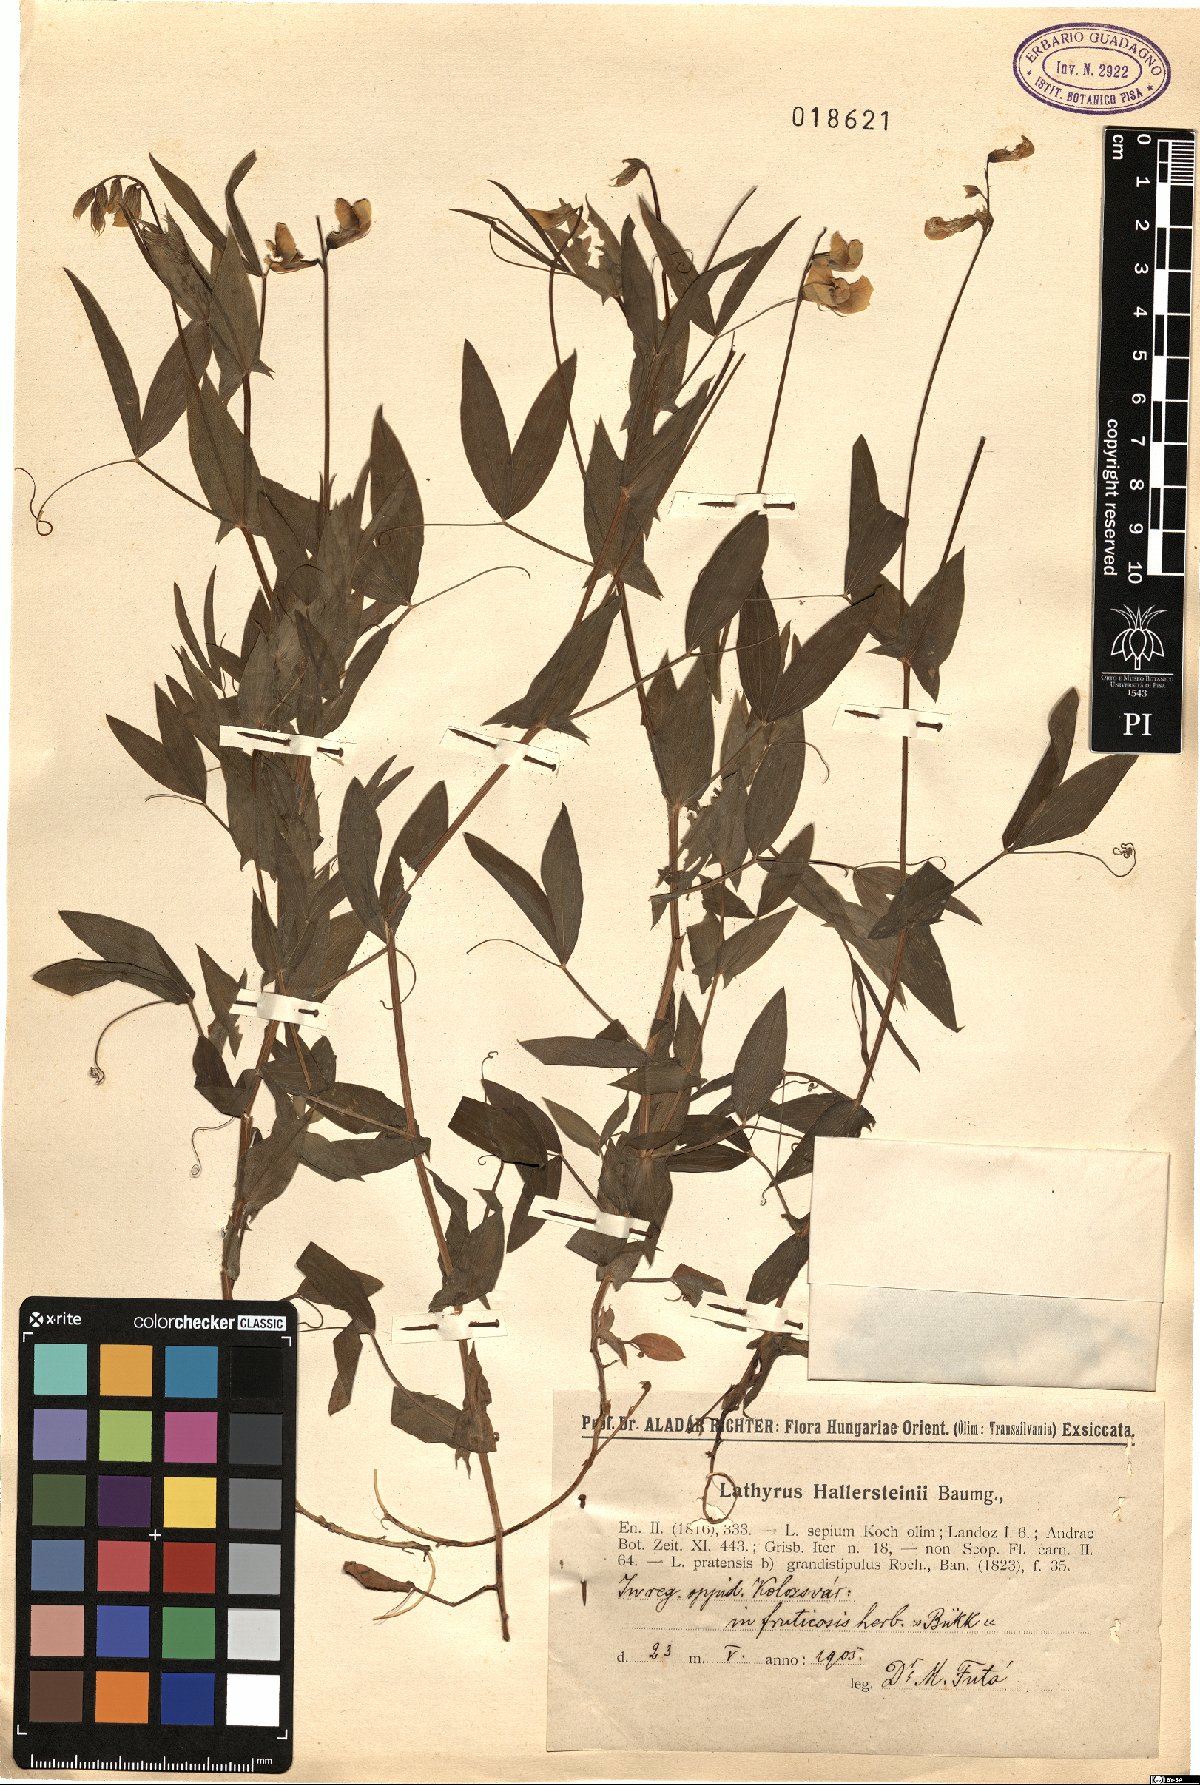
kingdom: Plantae
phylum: Tracheophyta
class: Magnoliopsida
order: Fabales
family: Fabaceae
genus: Lathyrus
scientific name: Lathyrus hallersteinii
